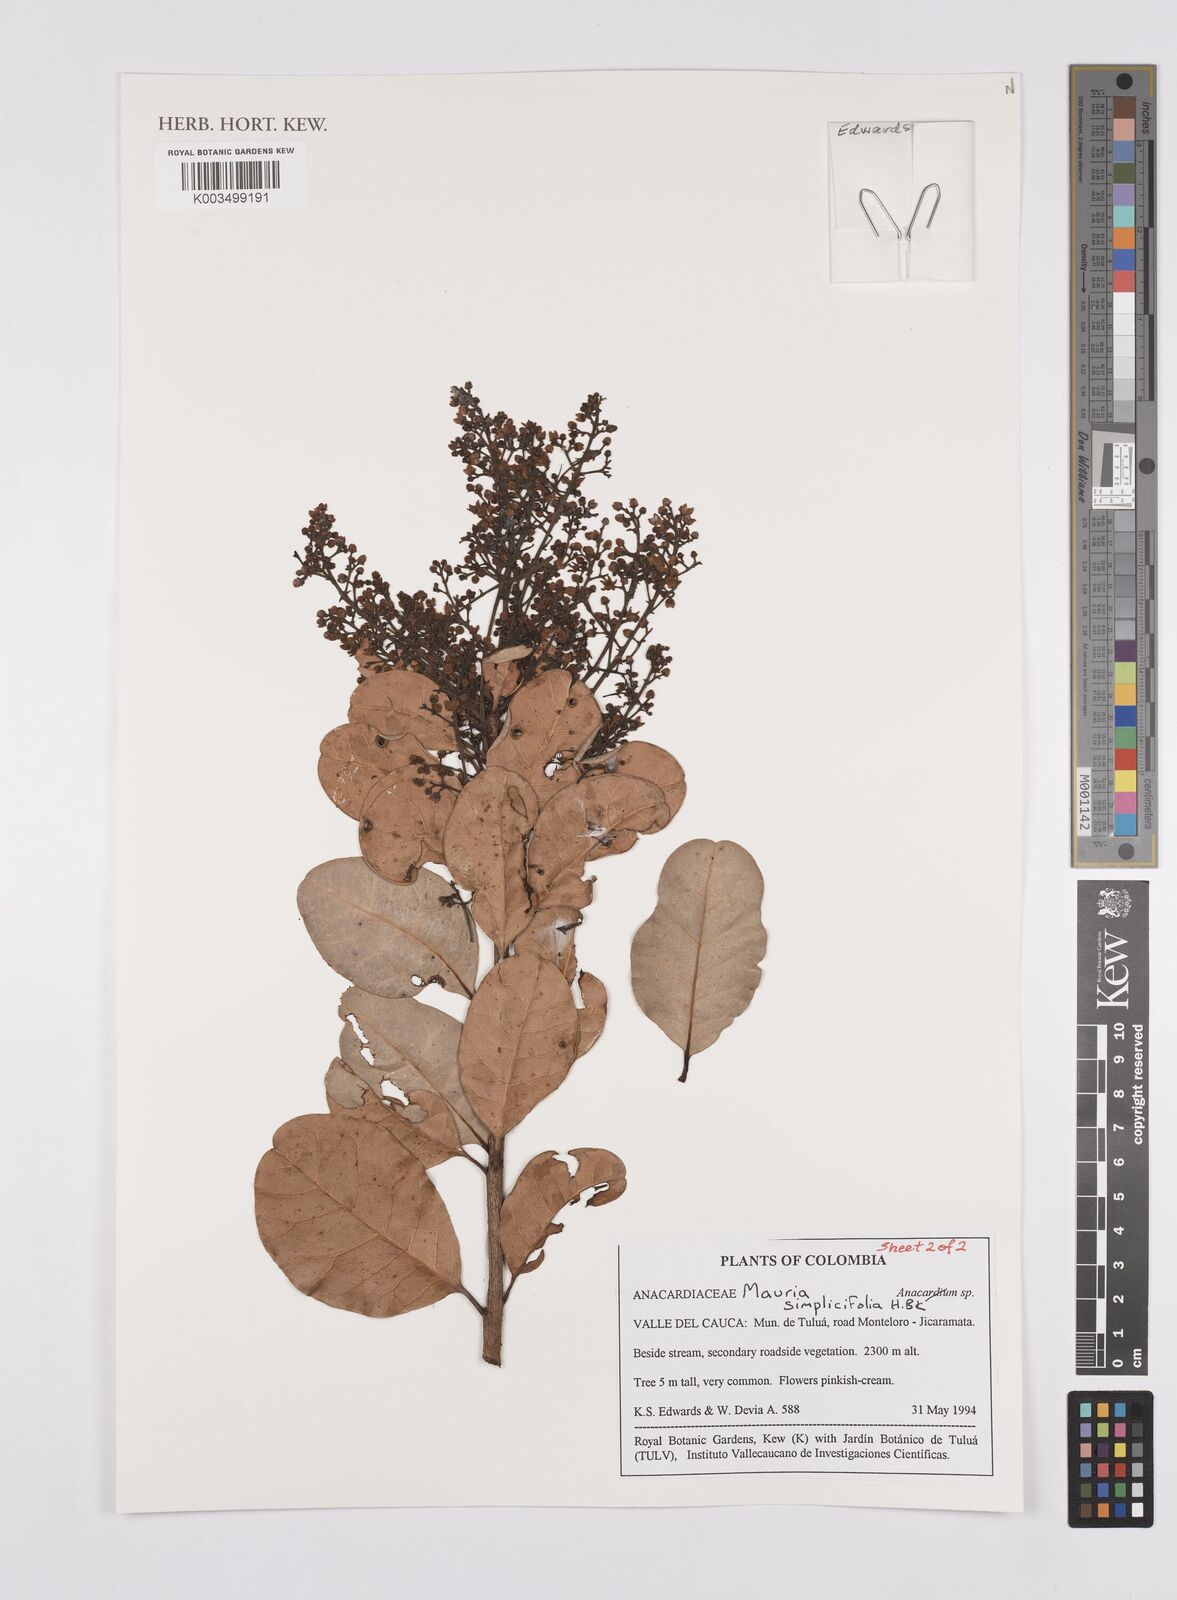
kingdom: Plantae
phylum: Tracheophyta
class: Magnoliopsida
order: Sapindales
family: Anacardiaceae
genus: Mauria
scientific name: Mauria simplicifolia
